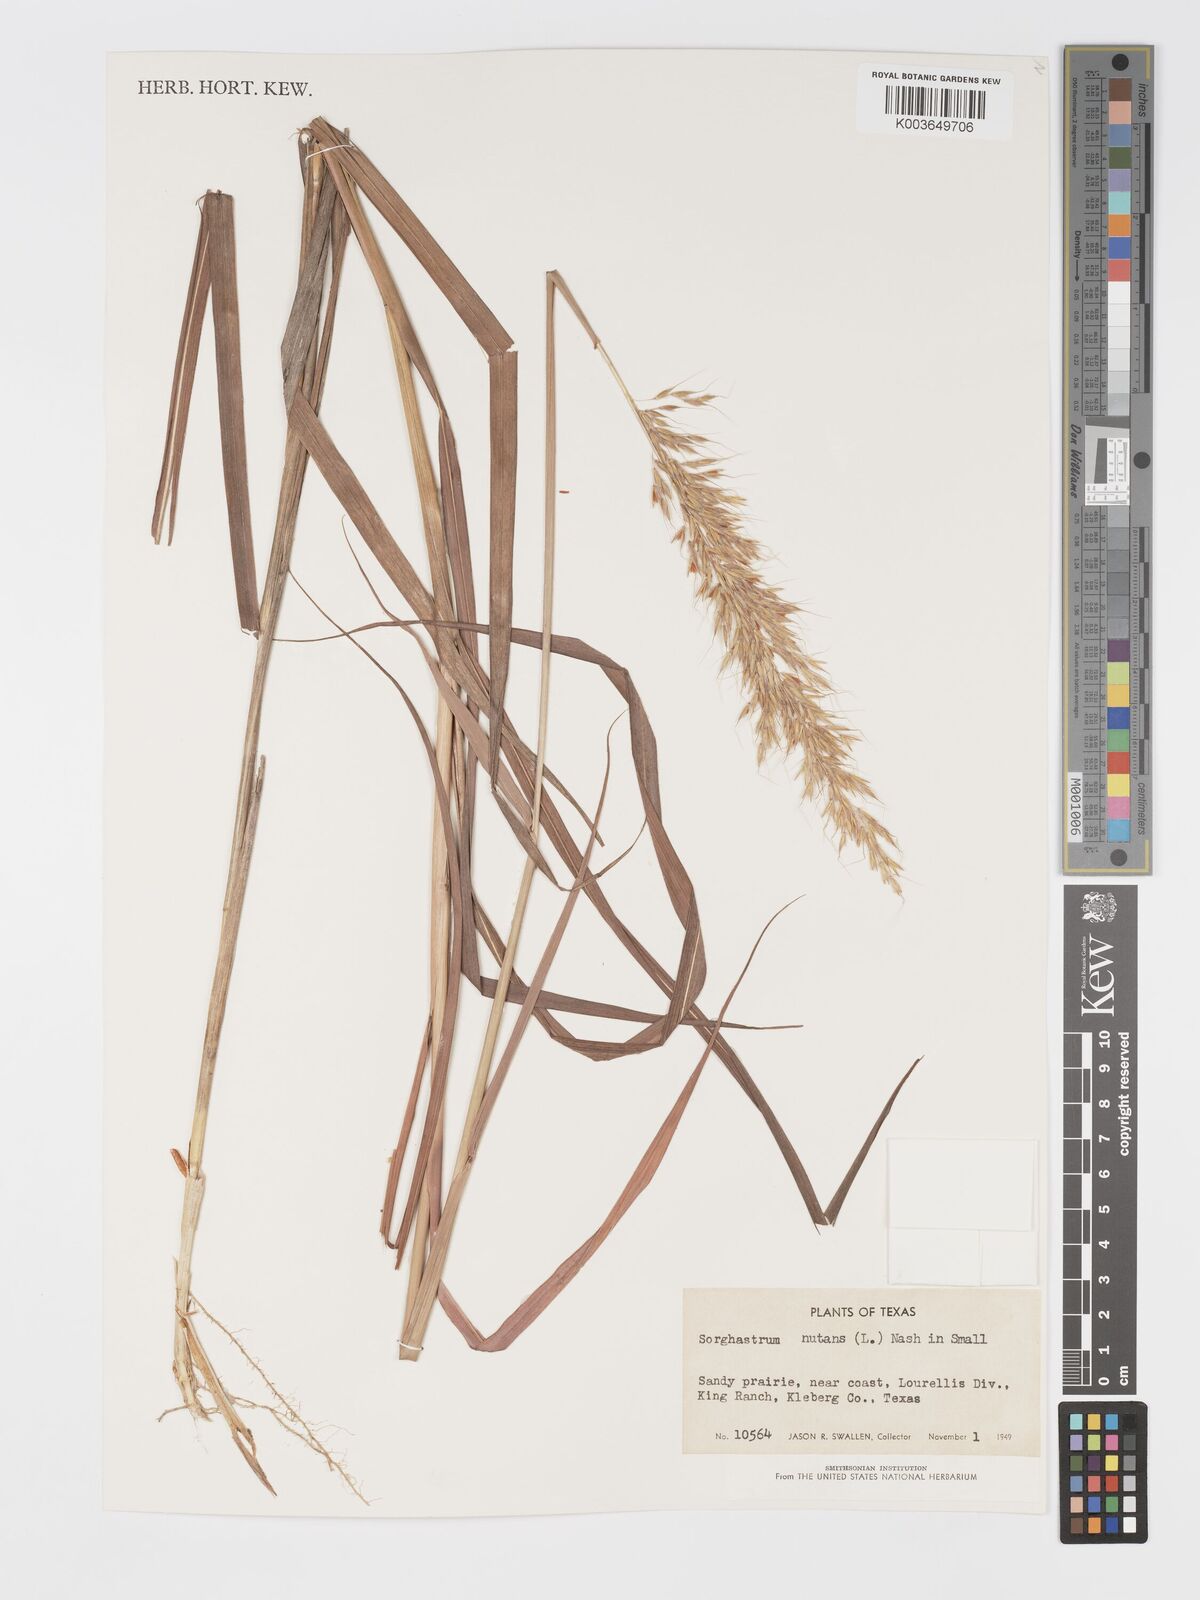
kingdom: Plantae
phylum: Tracheophyta
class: Liliopsida
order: Poales
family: Poaceae
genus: Sorghastrum
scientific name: Sorghastrum nutans
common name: Indian grass
